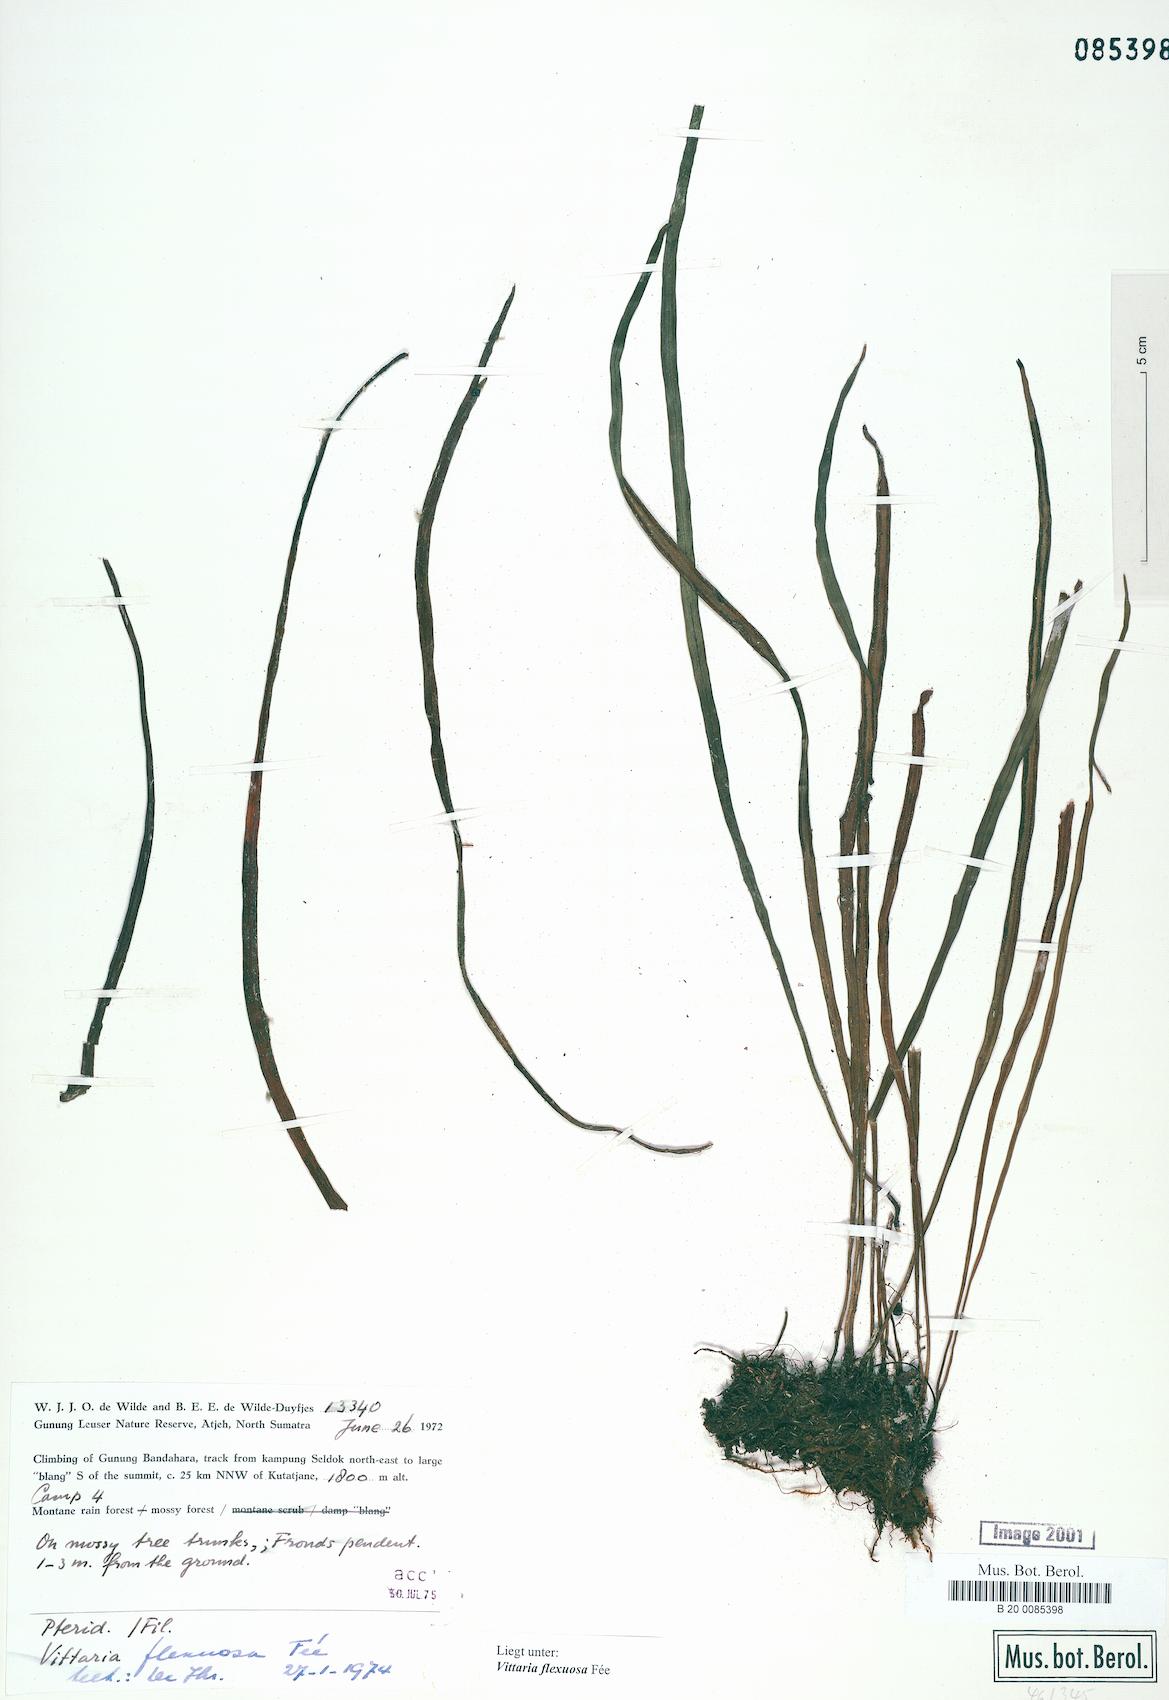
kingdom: Plantae
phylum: Tracheophyta
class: Polypodiopsida
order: Polypodiales
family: Pteridaceae
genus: Haplopteris
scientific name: Haplopteris flexuosa
